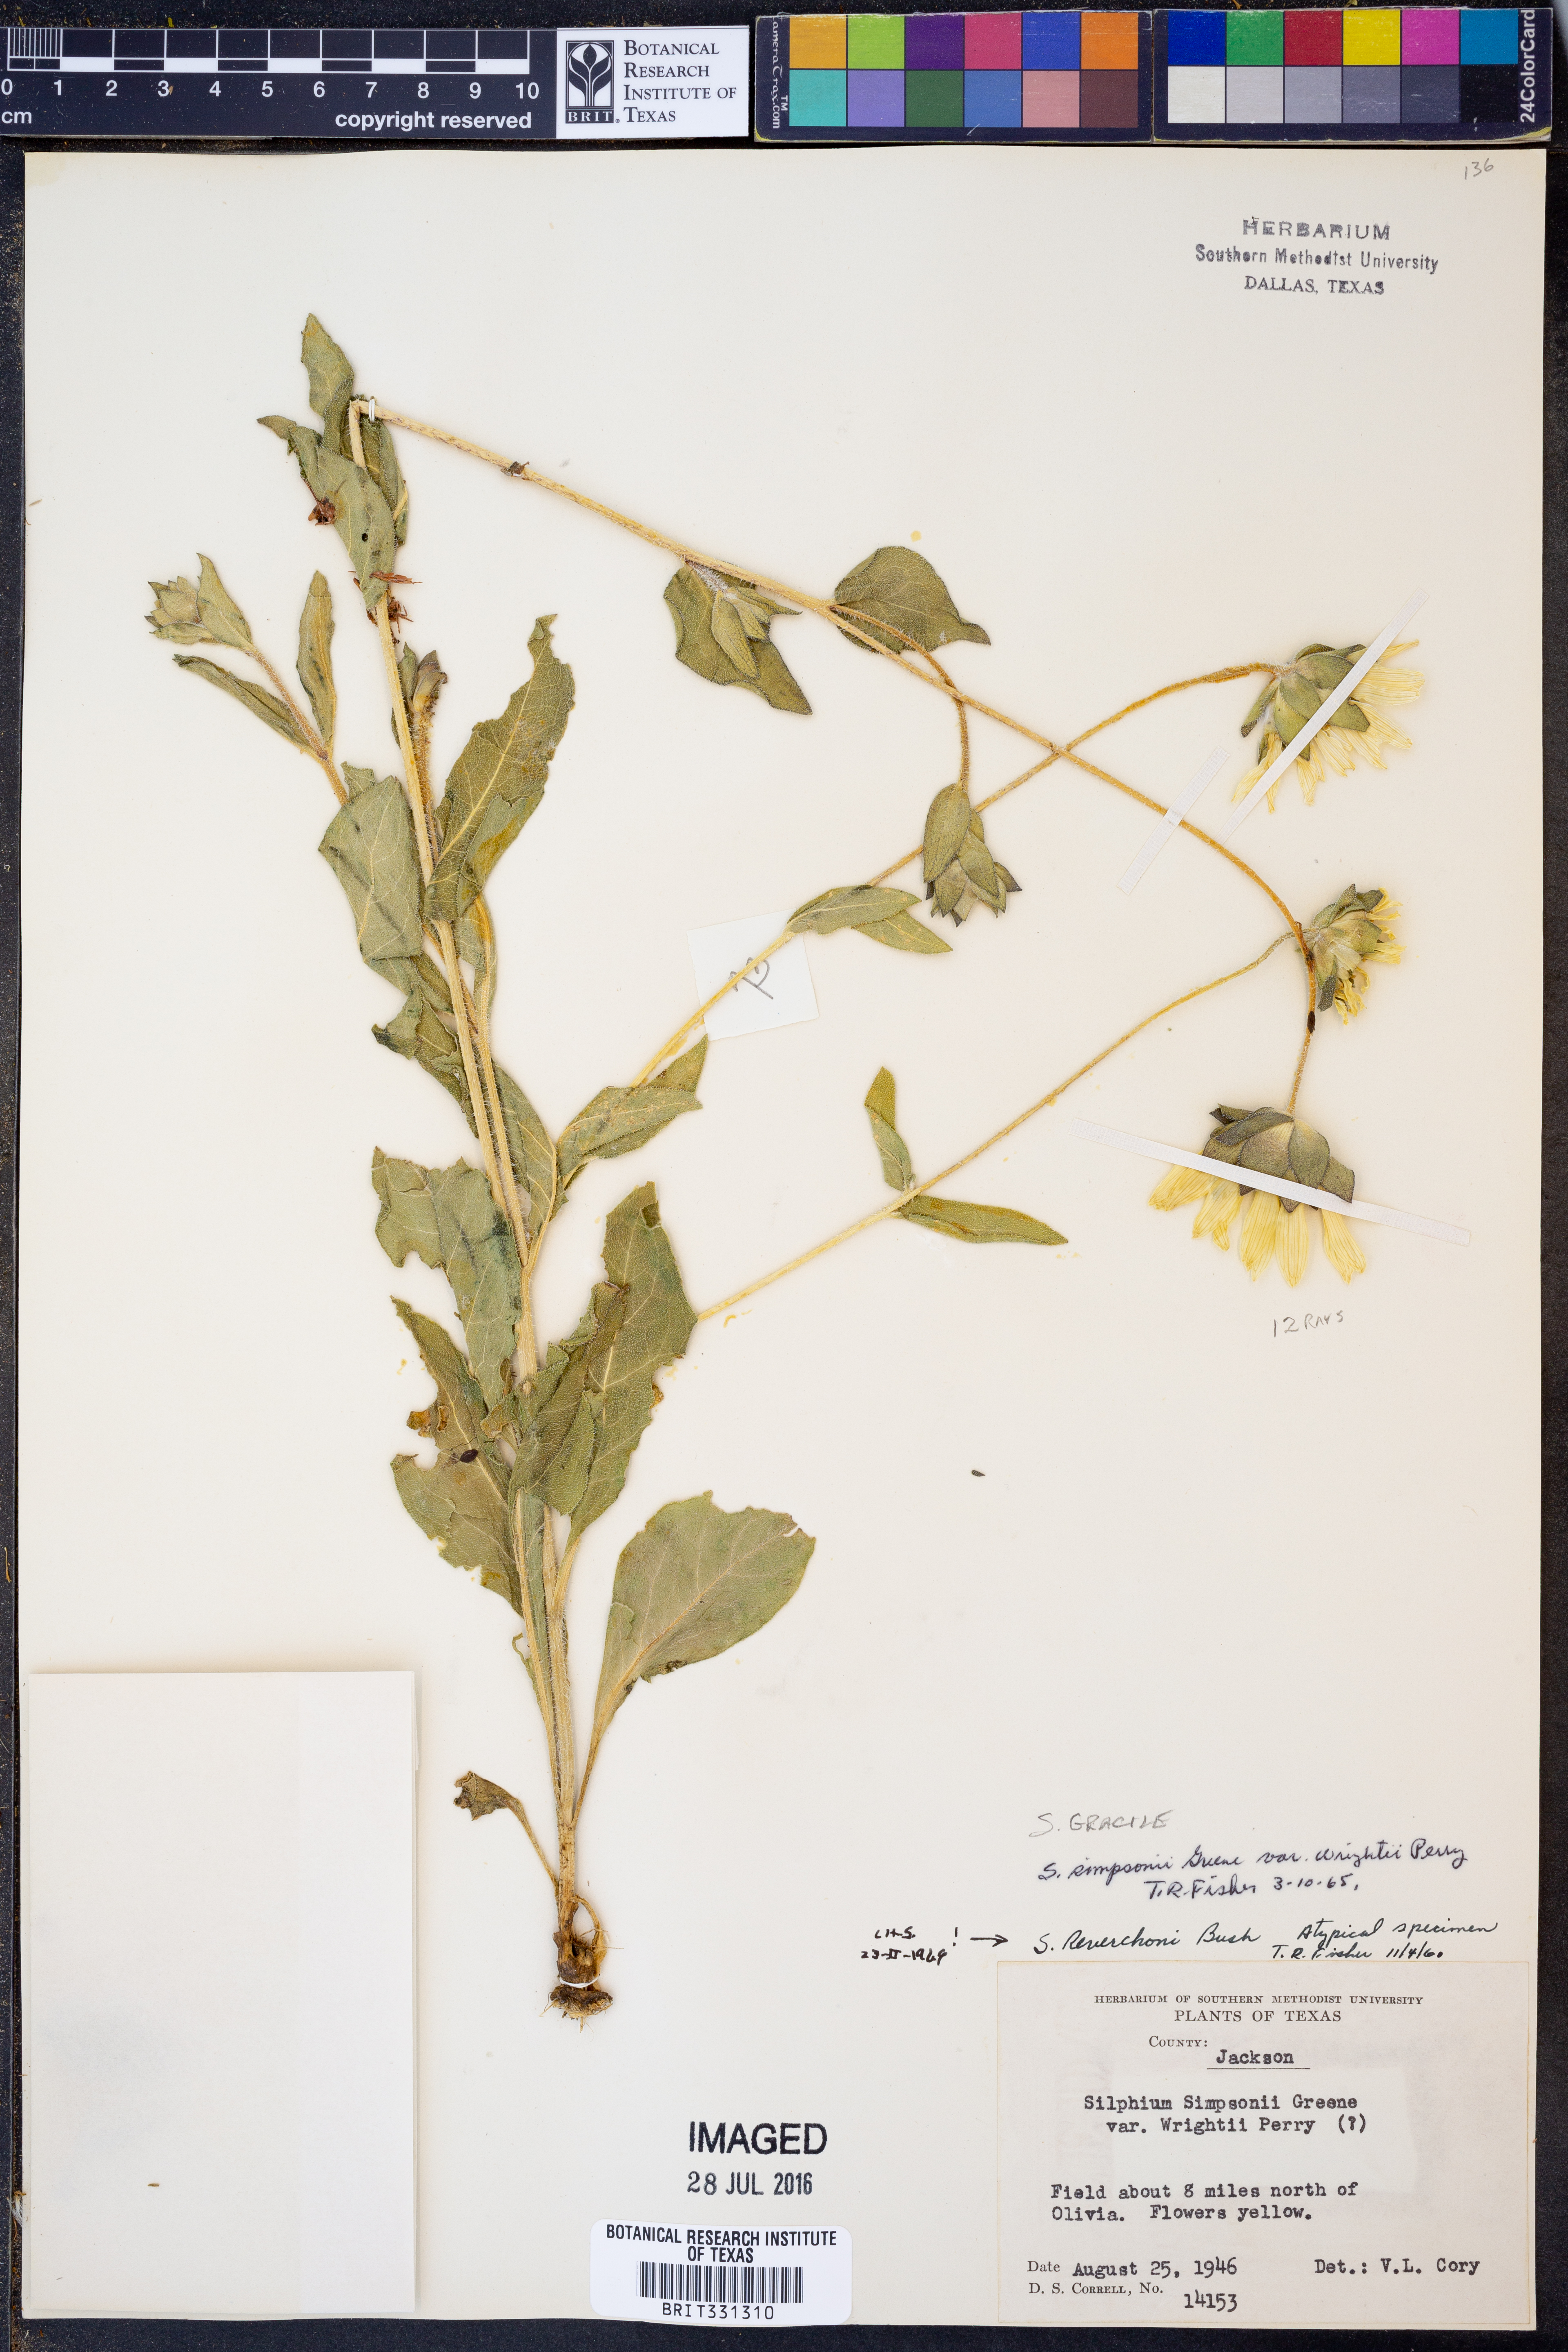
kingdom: Plantae
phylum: Tracheophyta
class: Magnoliopsida
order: Asterales
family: Asteraceae
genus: Silphium
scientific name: Silphium radula
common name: Roughleaf rosinweed
